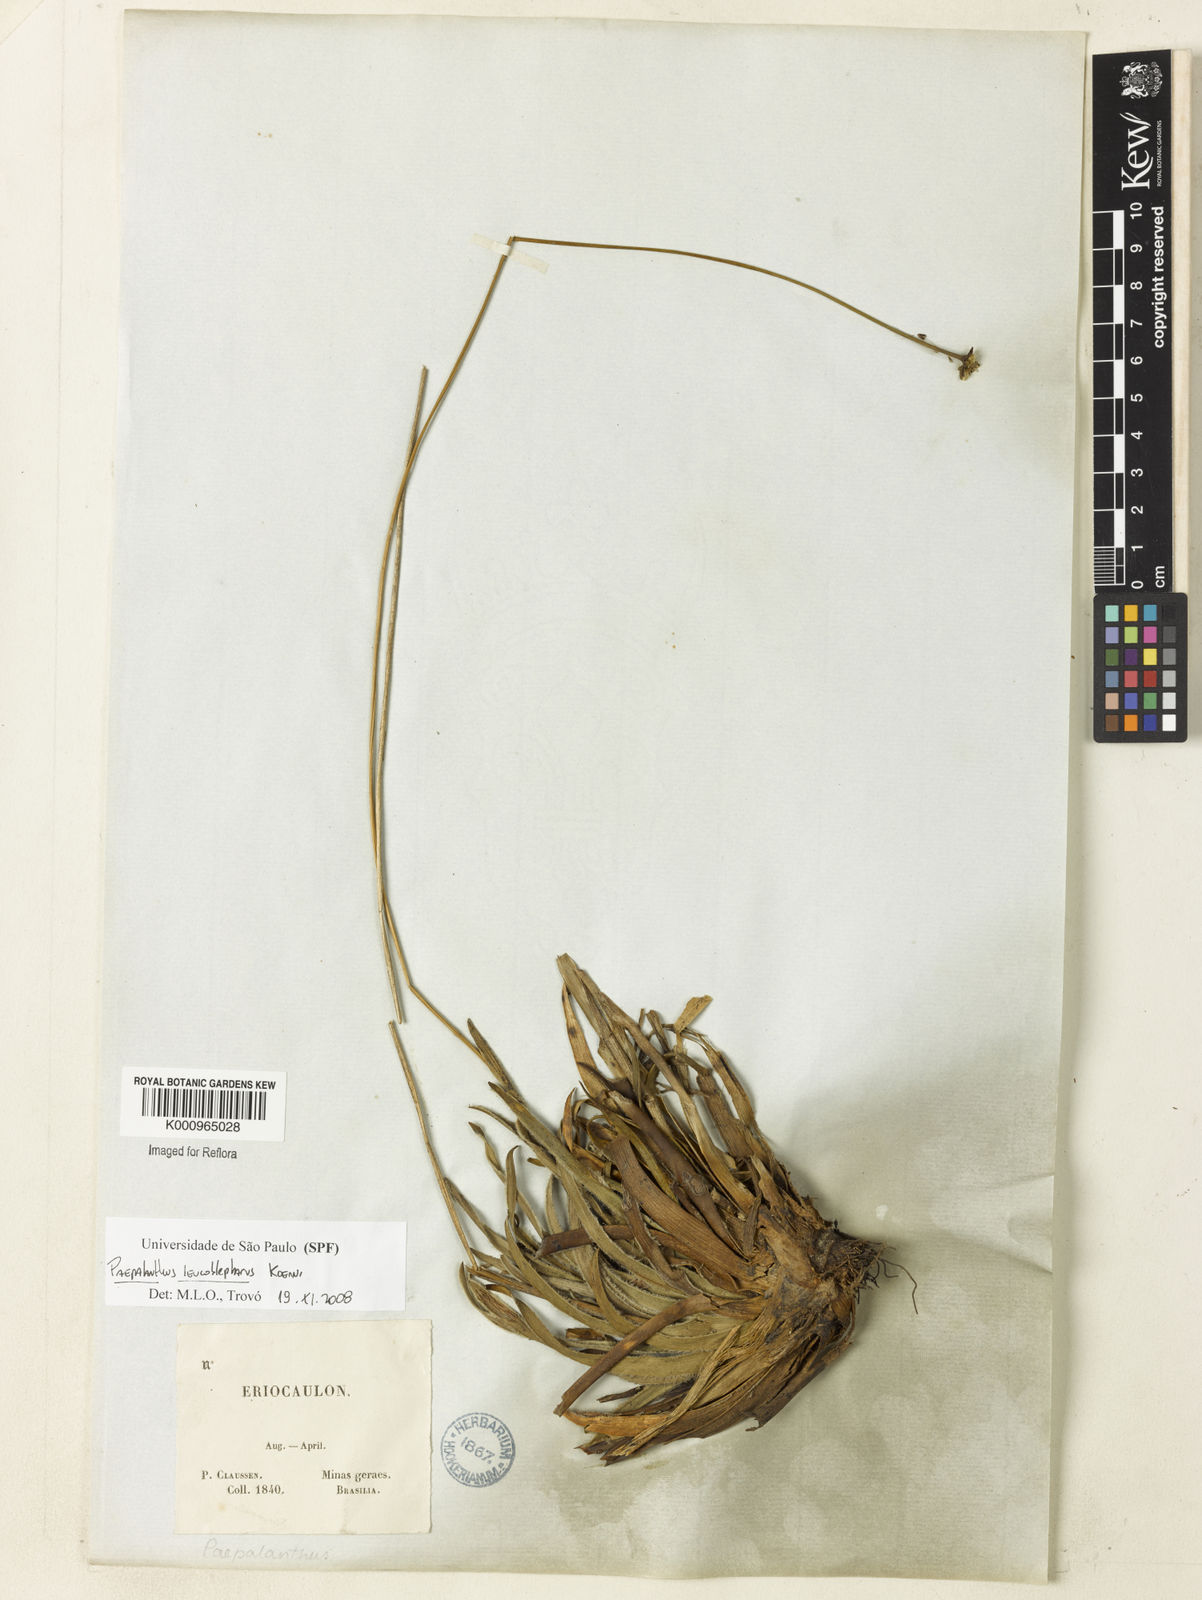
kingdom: Plantae
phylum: Tracheophyta
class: Liliopsida
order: Poales
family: Eriocaulaceae
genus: Paepalanthus
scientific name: Paepalanthus
